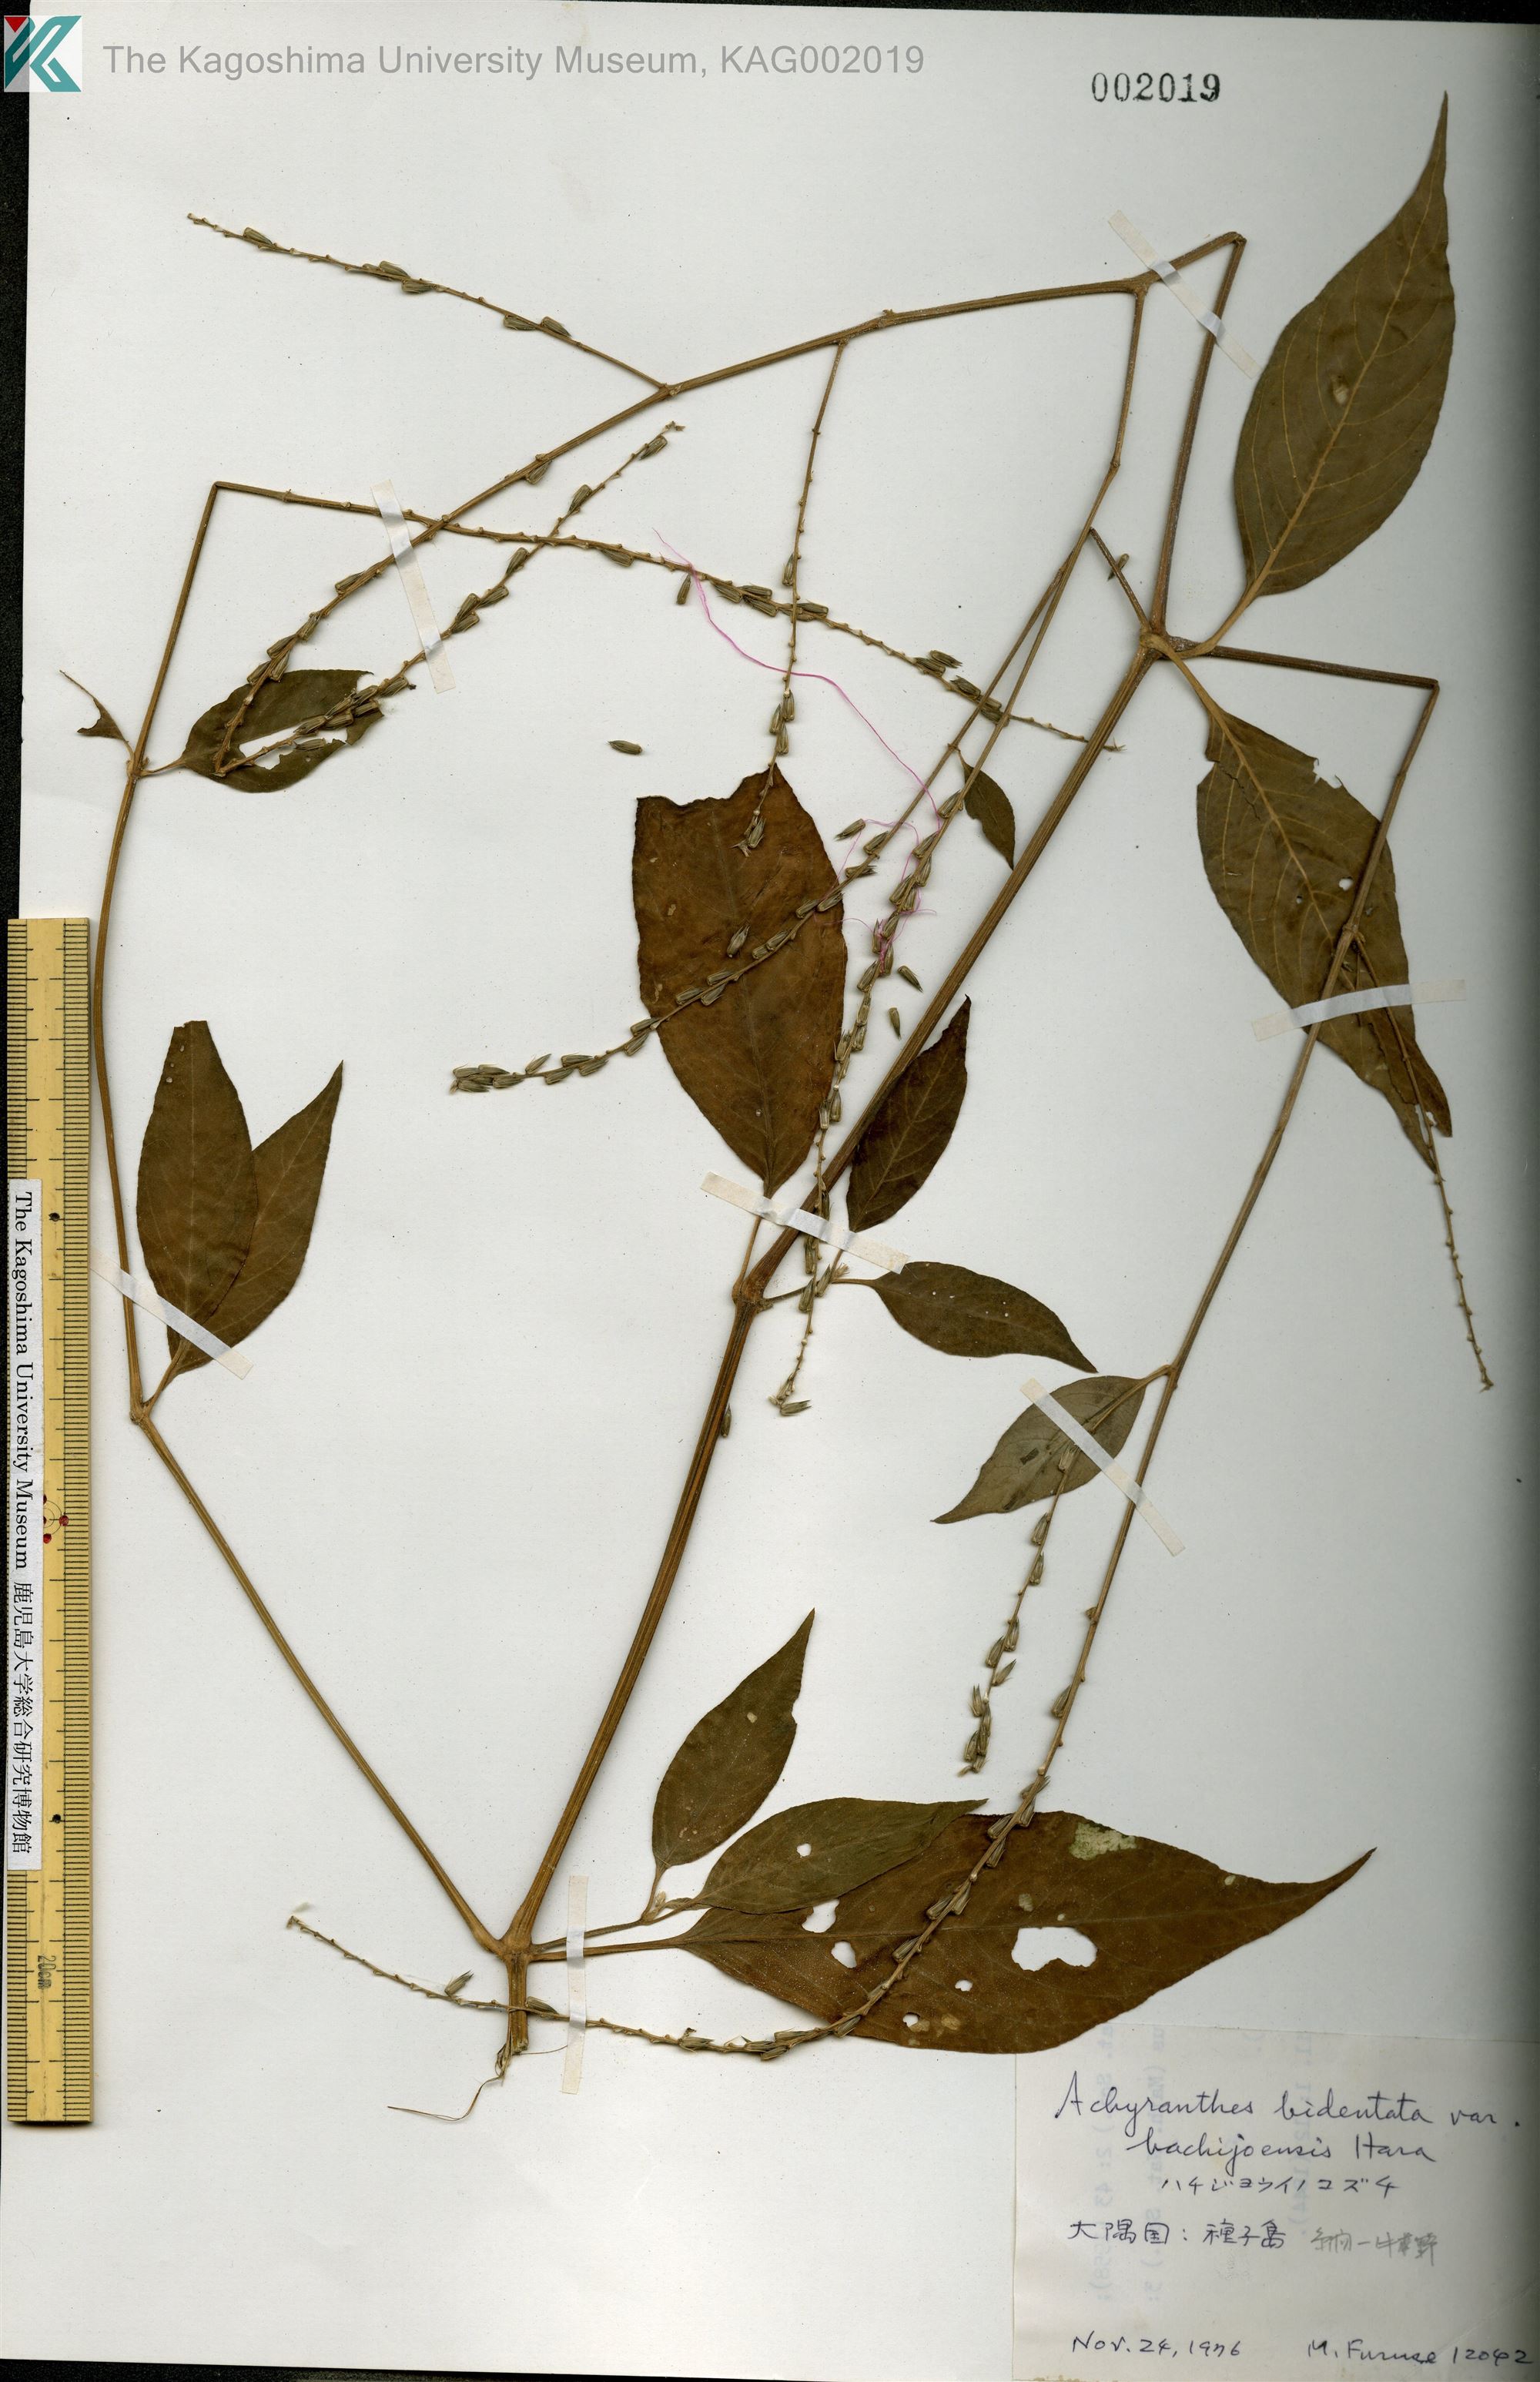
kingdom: Plantae
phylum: Tracheophyta
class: Magnoliopsida
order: Caryophyllales
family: Amaranthaceae
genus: Achyranthes
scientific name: Achyranthes bidentata
